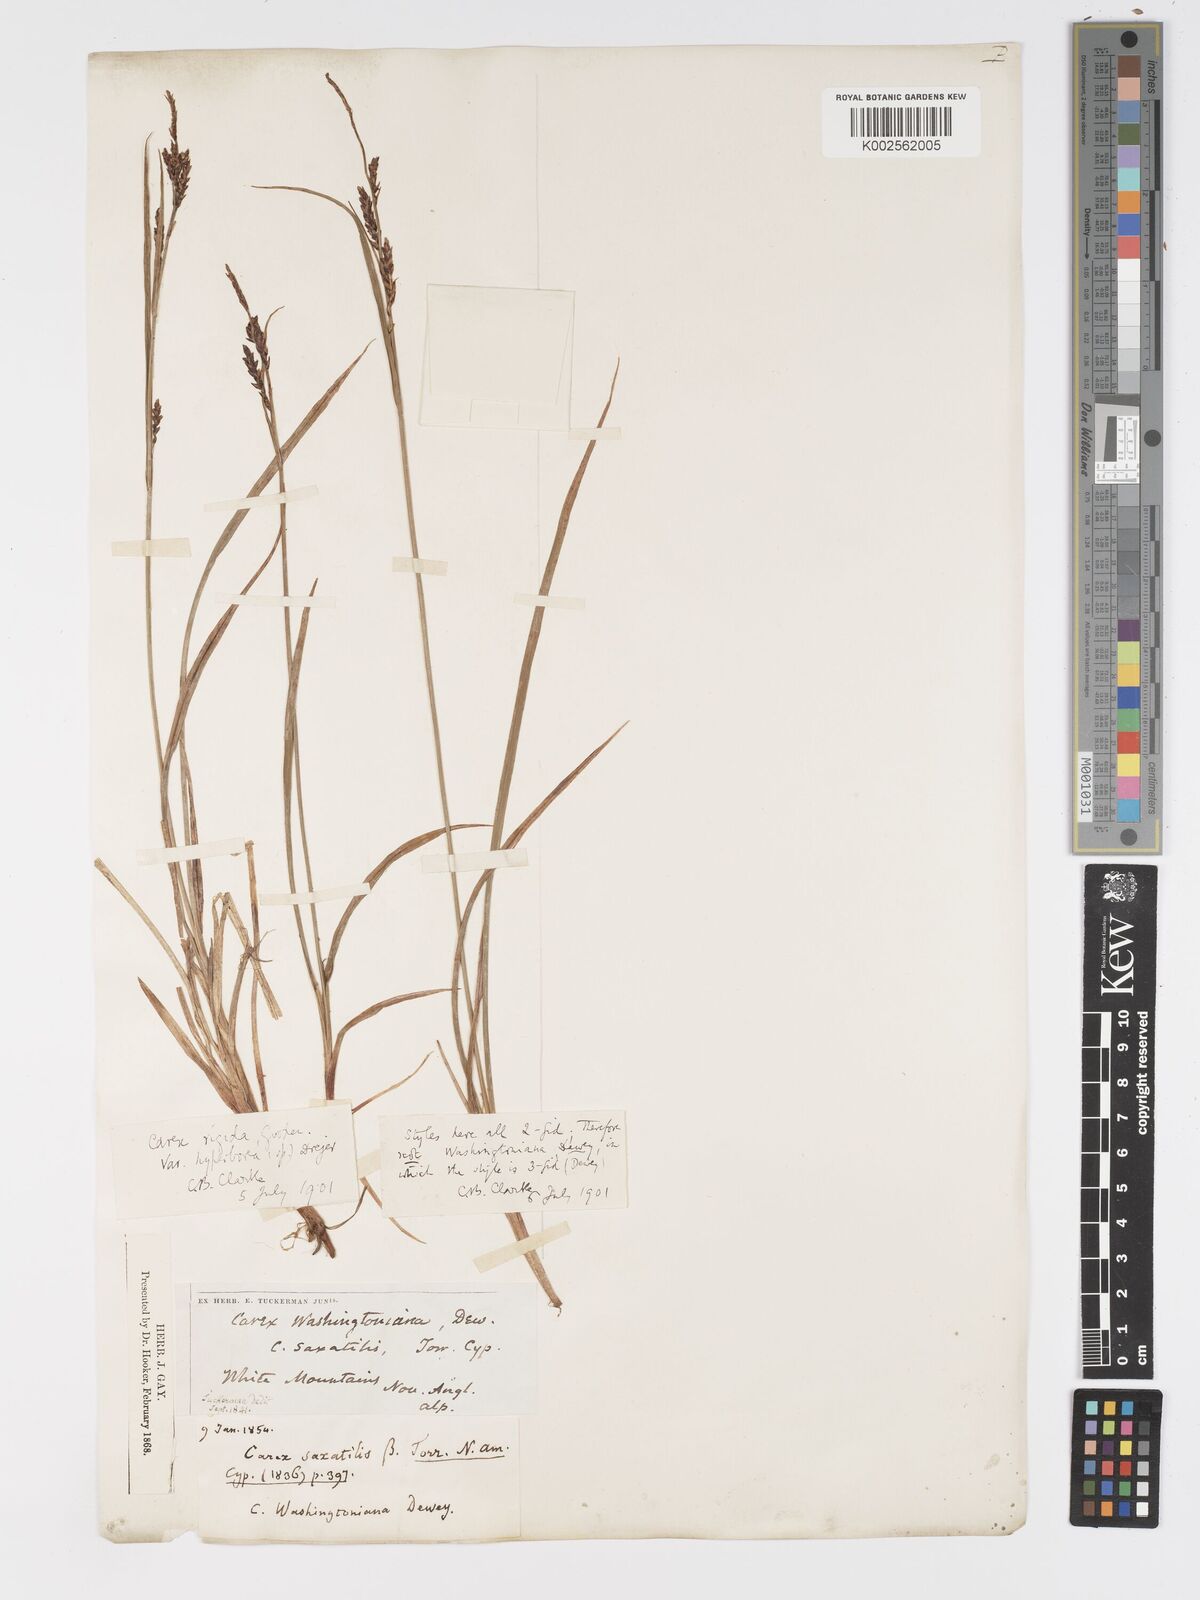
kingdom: Plantae
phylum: Tracheophyta
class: Liliopsida
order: Poales
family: Cyperaceae
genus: Carex
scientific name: Carex bigelowii
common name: Stiff sedge
